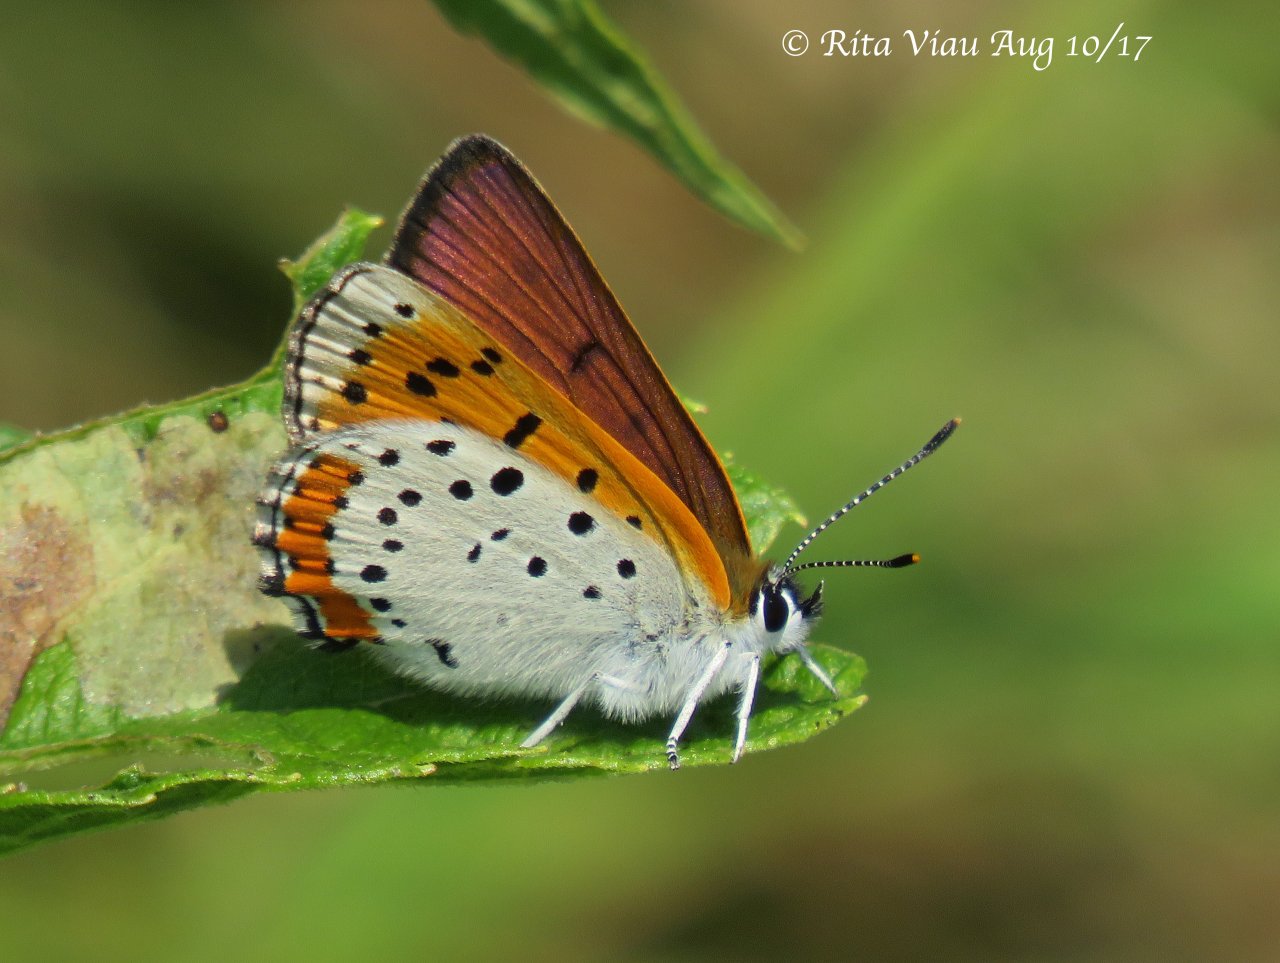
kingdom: Animalia
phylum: Arthropoda
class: Insecta
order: Lepidoptera
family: Sesiidae
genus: Sesia
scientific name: Sesia Lycaena hyllus
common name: Bronze Copper
